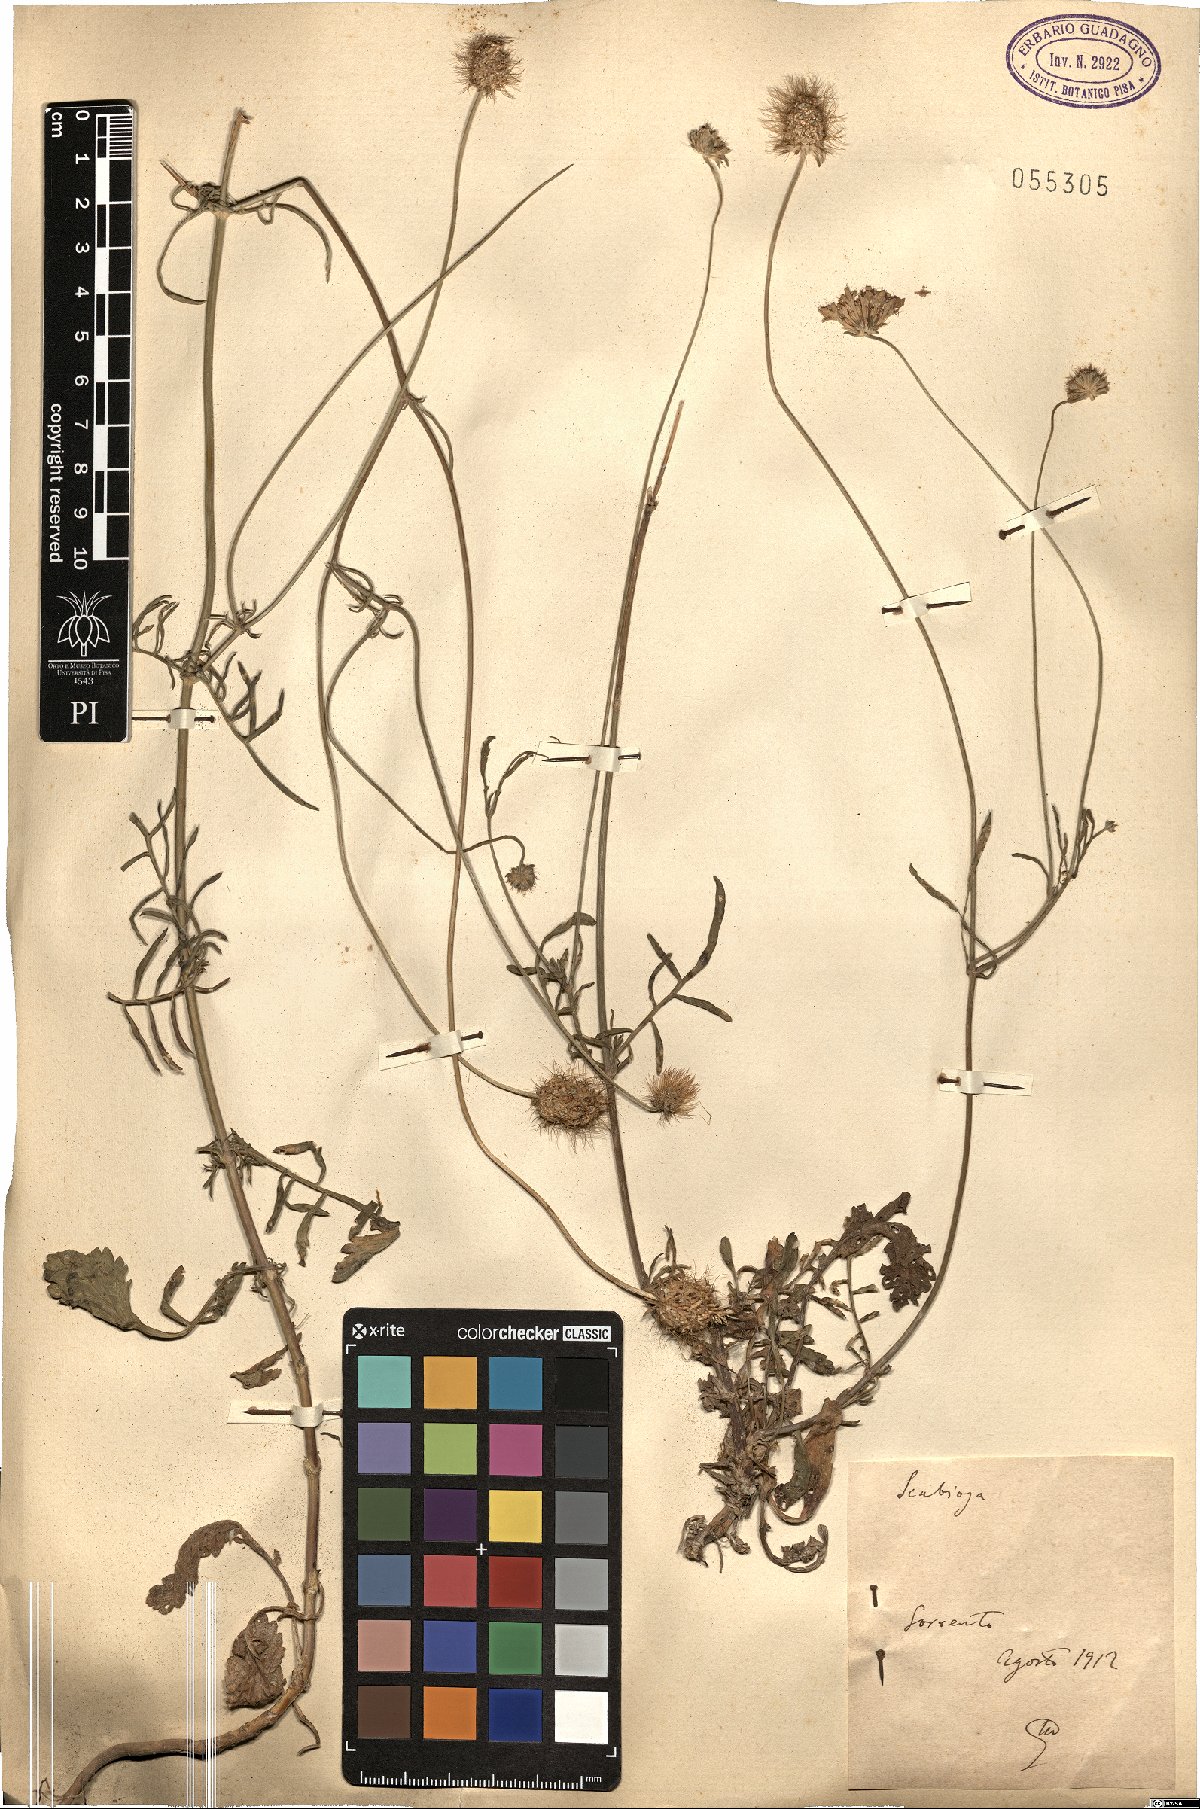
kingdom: Plantae
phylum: Tracheophyta
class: Magnoliopsida
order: Dipsacales
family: Caprifoliaceae
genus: Scabiosa
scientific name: Scabiosa
